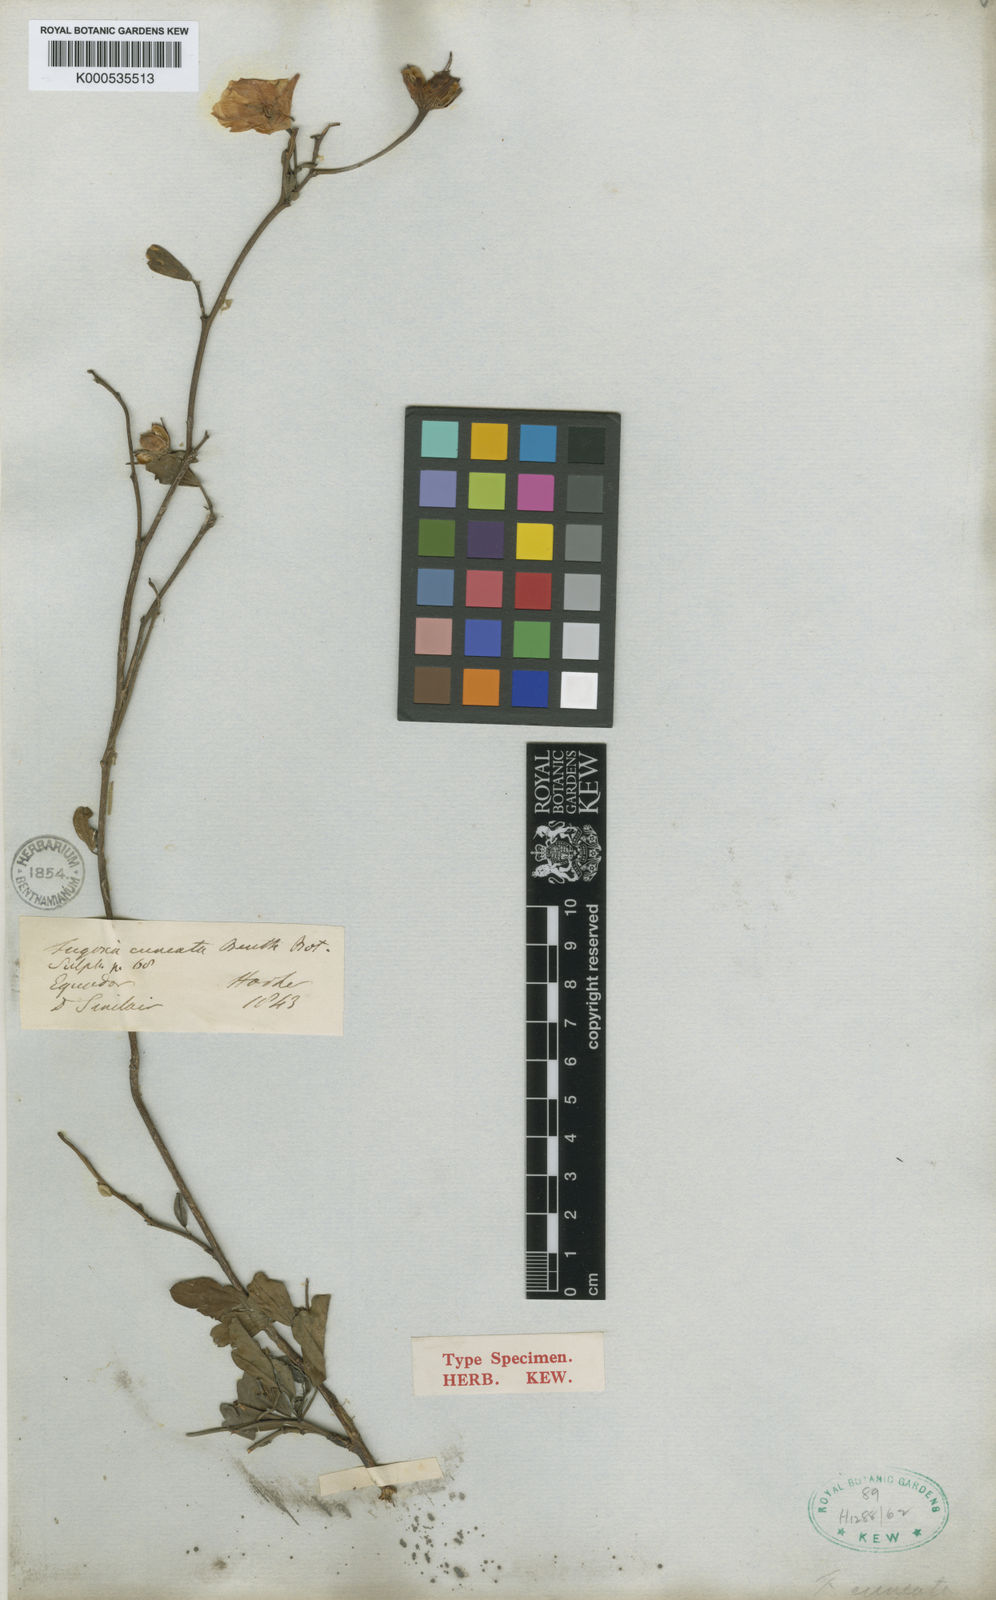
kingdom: Plantae
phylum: Tracheophyta
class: Magnoliopsida
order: Malvales
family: Malvaceae
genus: Cienfuegosia
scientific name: Cienfuegosia
